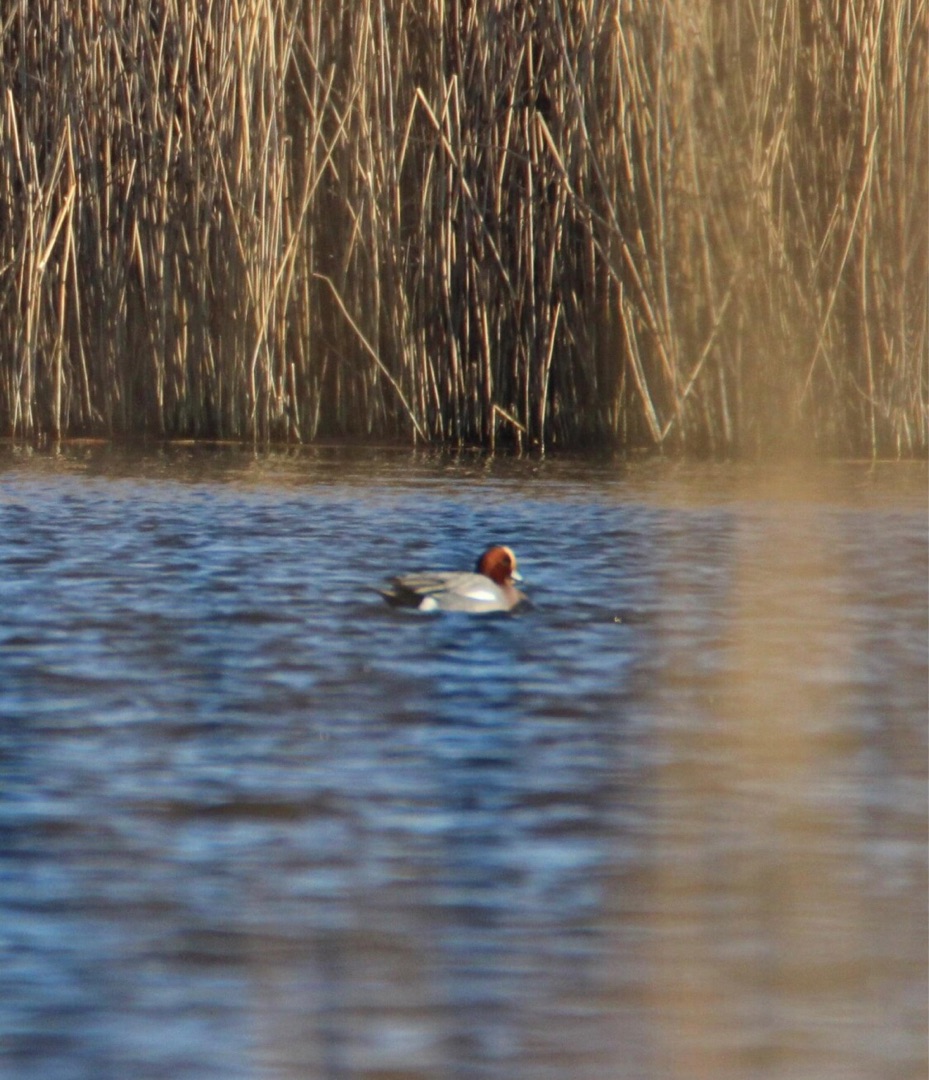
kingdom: Animalia
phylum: Chordata
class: Aves
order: Anseriformes
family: Anatidae
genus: Mareca
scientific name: Mareca penelope
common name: Pibeand
